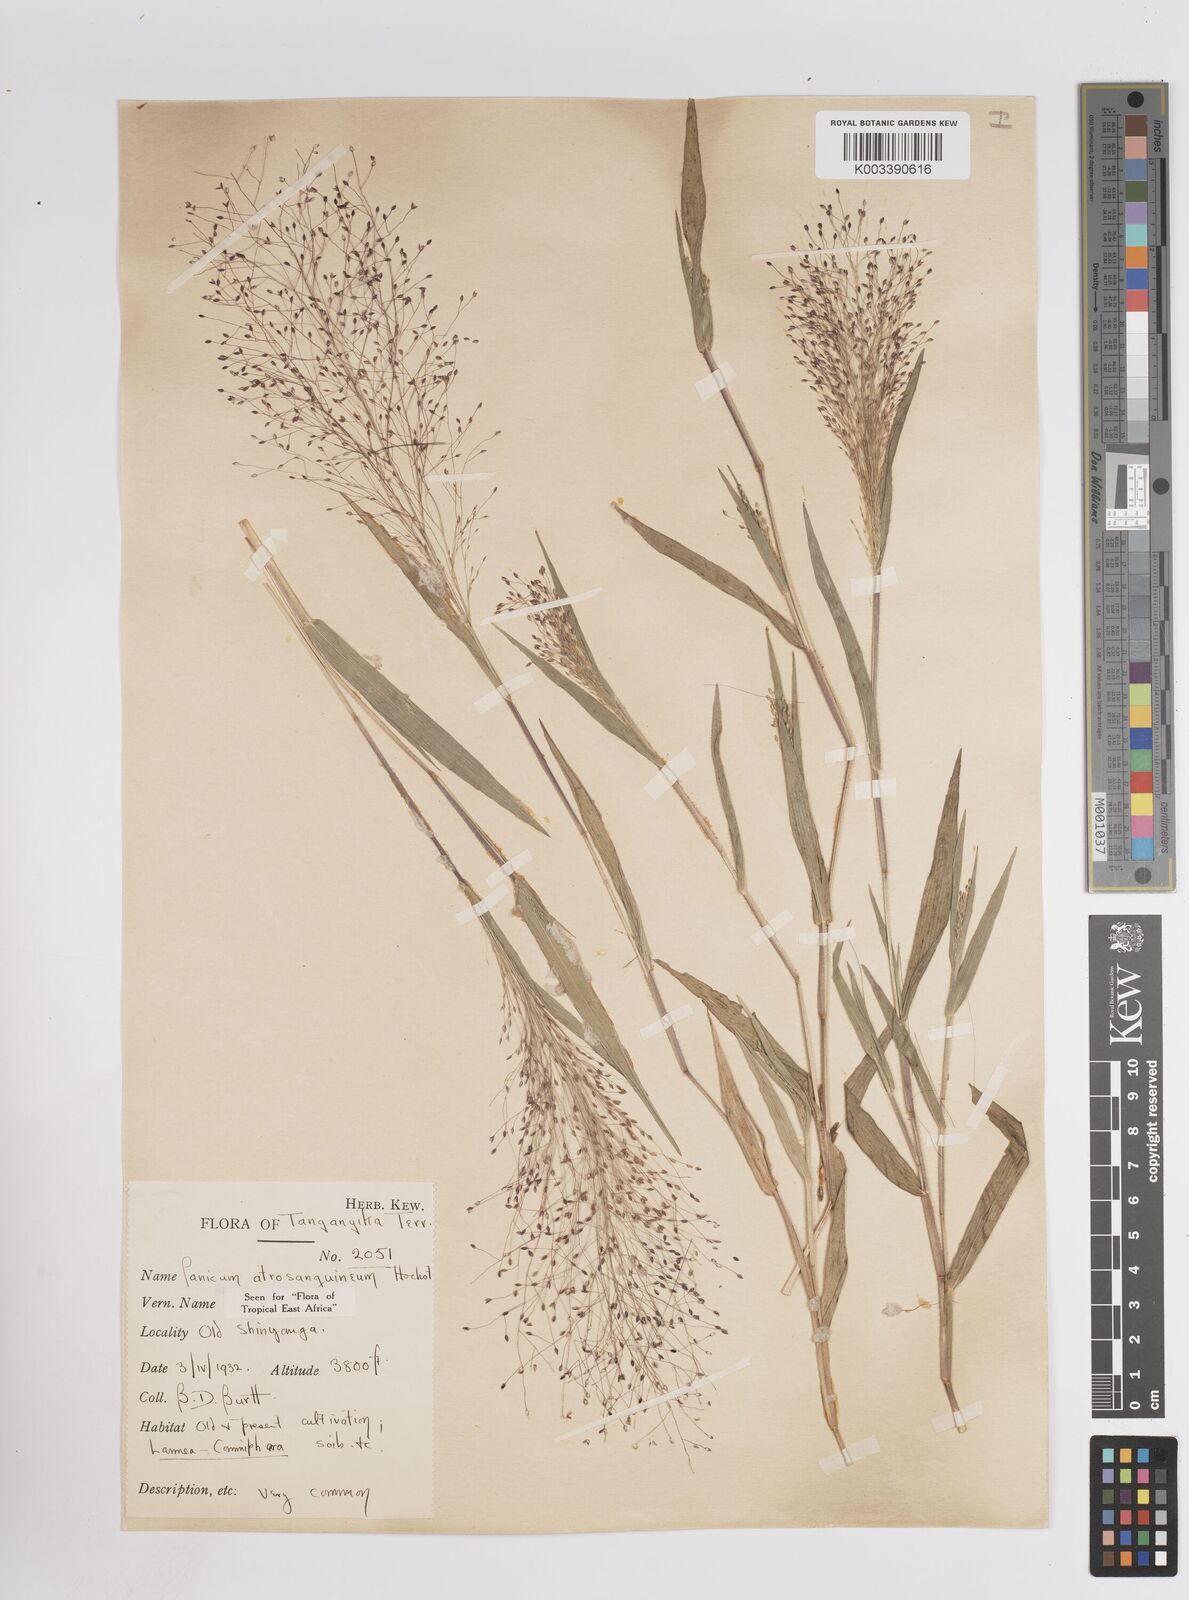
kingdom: Plantae
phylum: Tracheophyta
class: Liliopsida
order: Poales
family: Poaceae
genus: Panicum
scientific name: Panicum atrosanguineum
